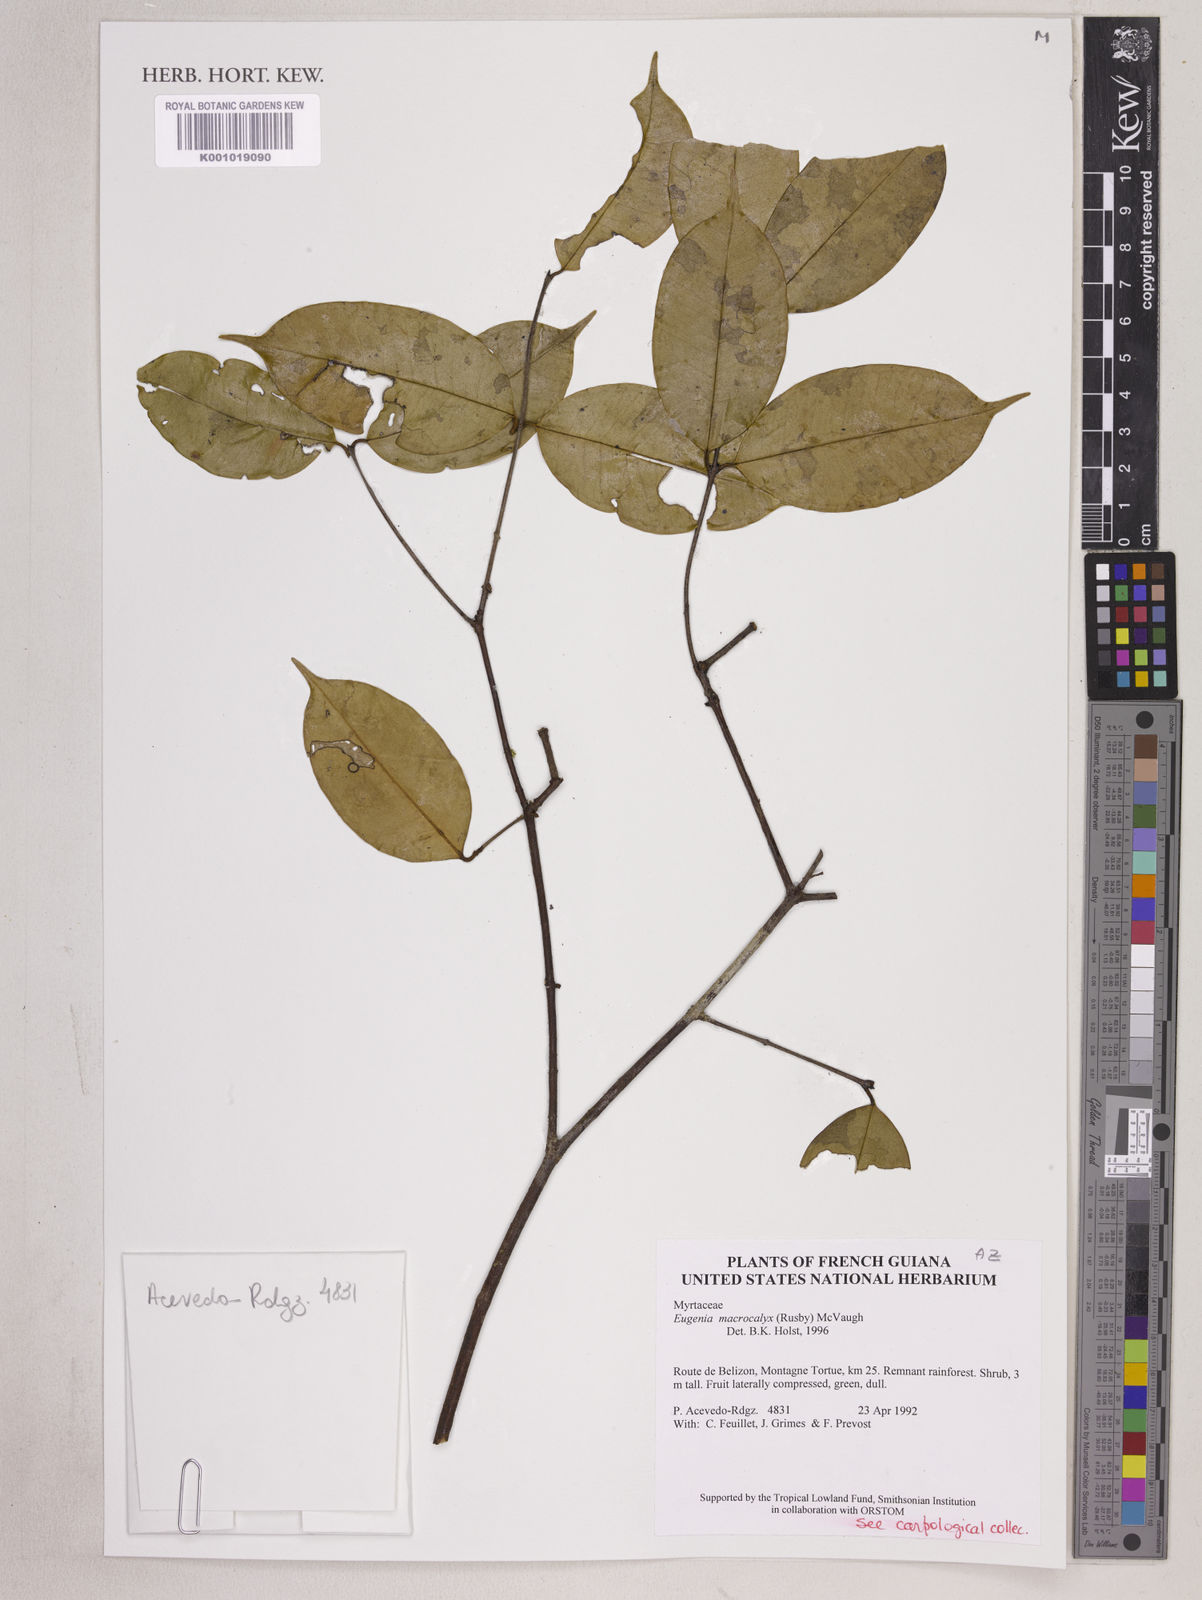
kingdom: Plantae
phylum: Tracheophyta
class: Magnoliopsida
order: Myrtales
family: Myrtaceae
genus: Eugenia
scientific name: Eugenia wentii
